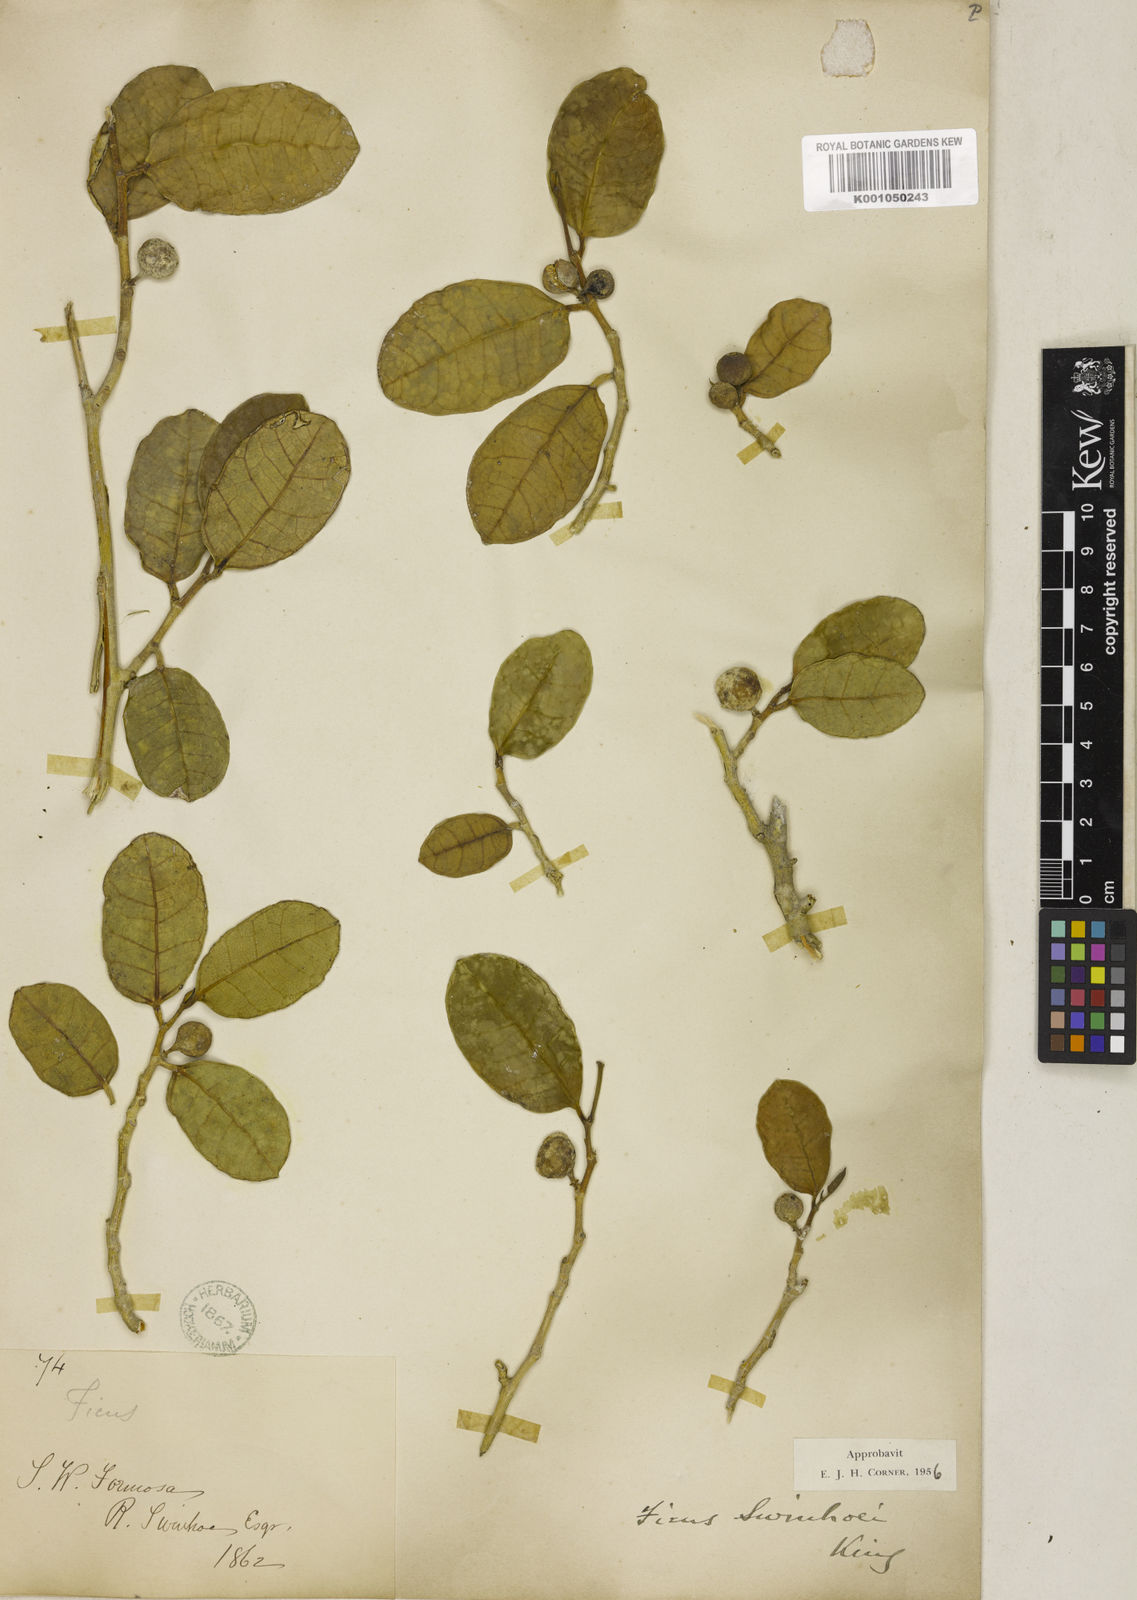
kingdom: Plantae
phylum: Tracheophyta
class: Magnoliopsida
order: Rosales
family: Moraceae
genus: Ficus
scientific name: Ficus tinctoria
